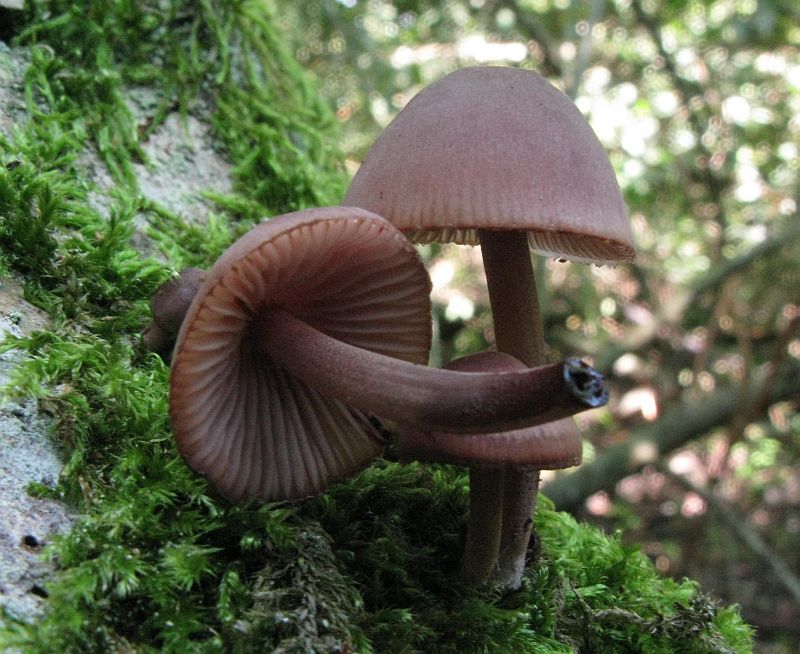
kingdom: Fungi
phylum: Basidiomycota
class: Agaricomycetes
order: Agaricales
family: Mycenaceae
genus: Mycena
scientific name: Mycena haematopus
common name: blødende huesvamp
